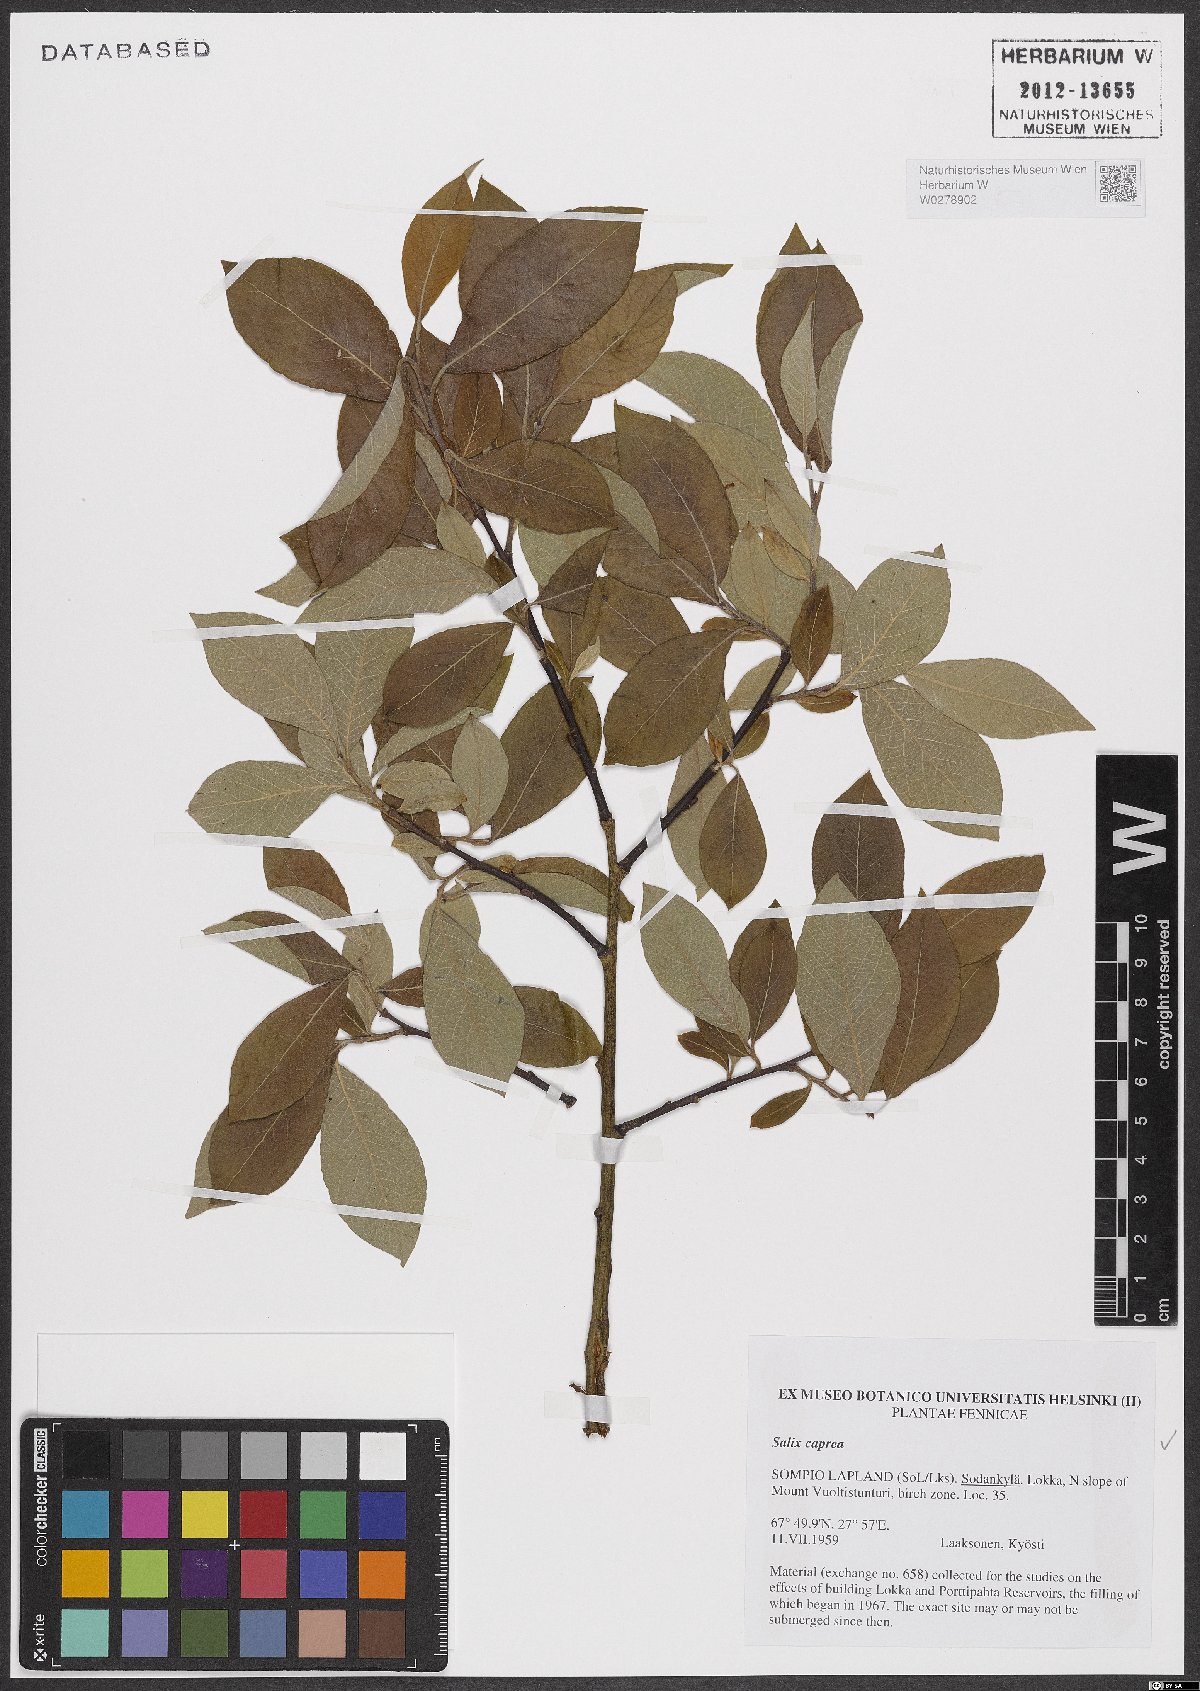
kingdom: Plantae
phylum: Tracheophyta
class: Magnoliopsida
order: Malpighiales
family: Salicaceae
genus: Salix
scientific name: Salix caprea
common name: Goat willow
